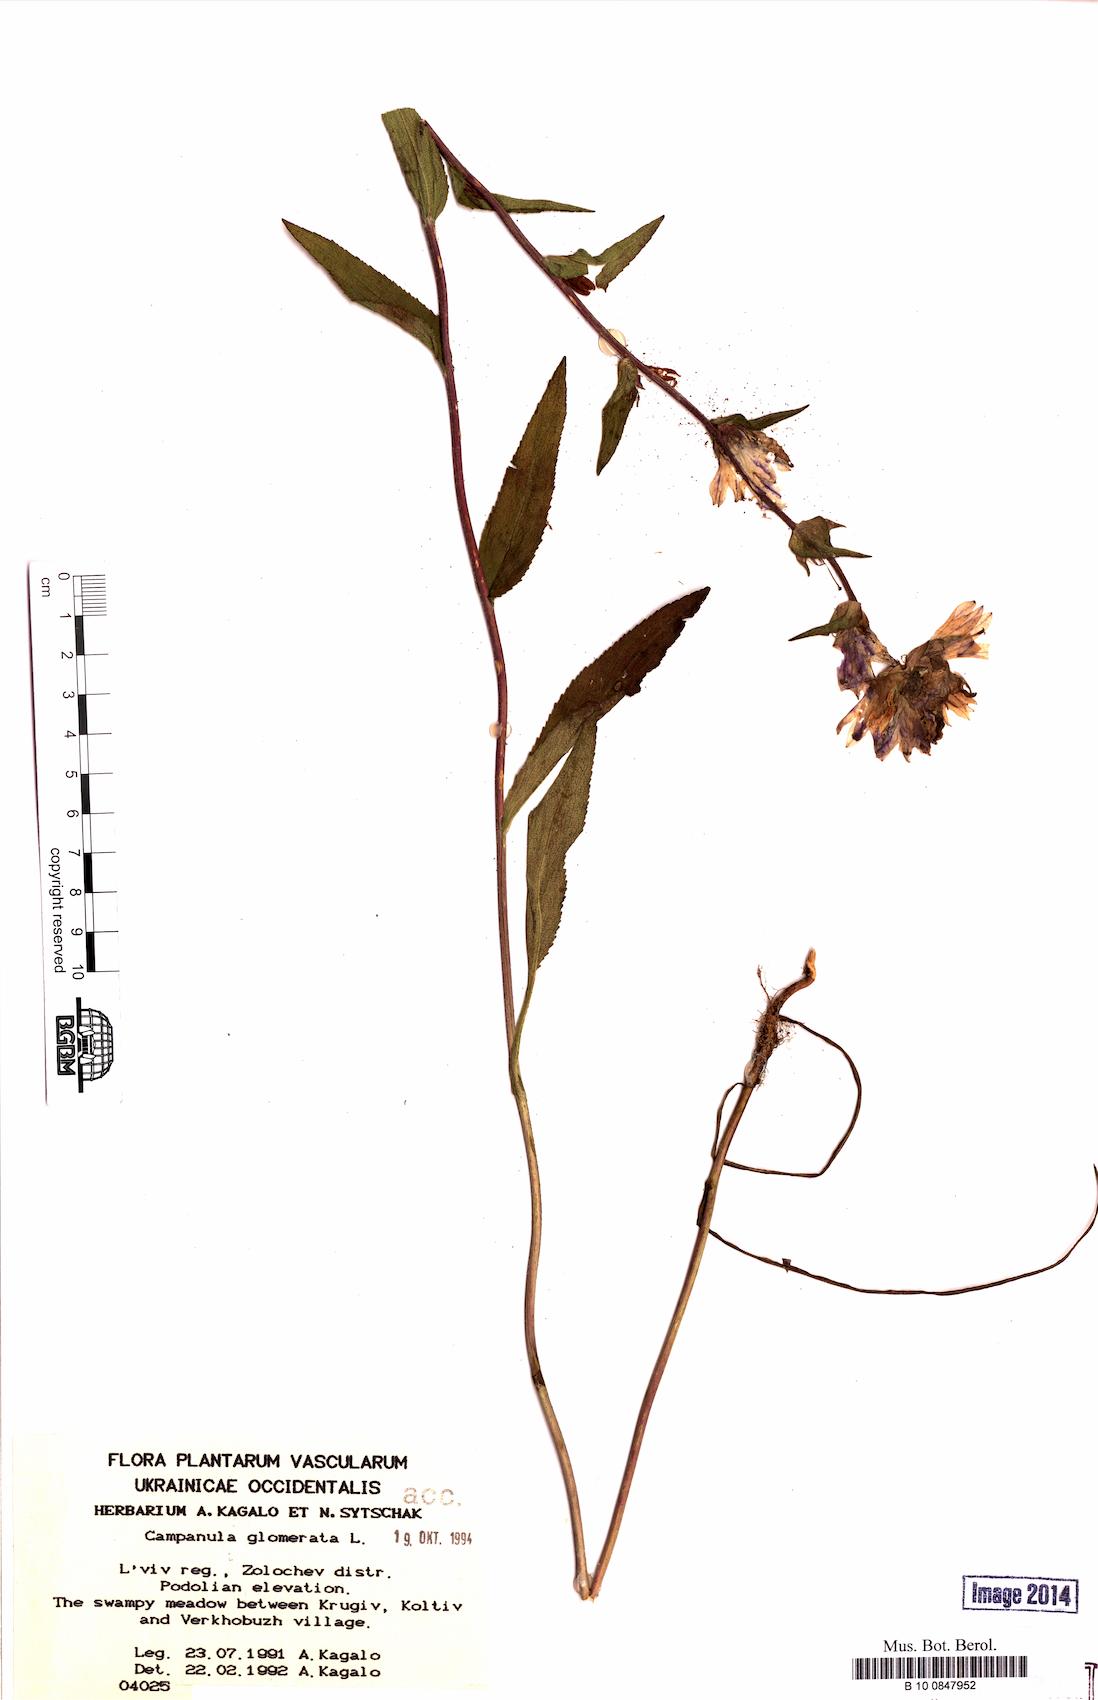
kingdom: Plantae
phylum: Tracheophyta
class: Magnoliopsida
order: Asterales
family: Campanulaceae
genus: Campanula
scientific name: Campanula glomerata
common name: Clustered bellflower
